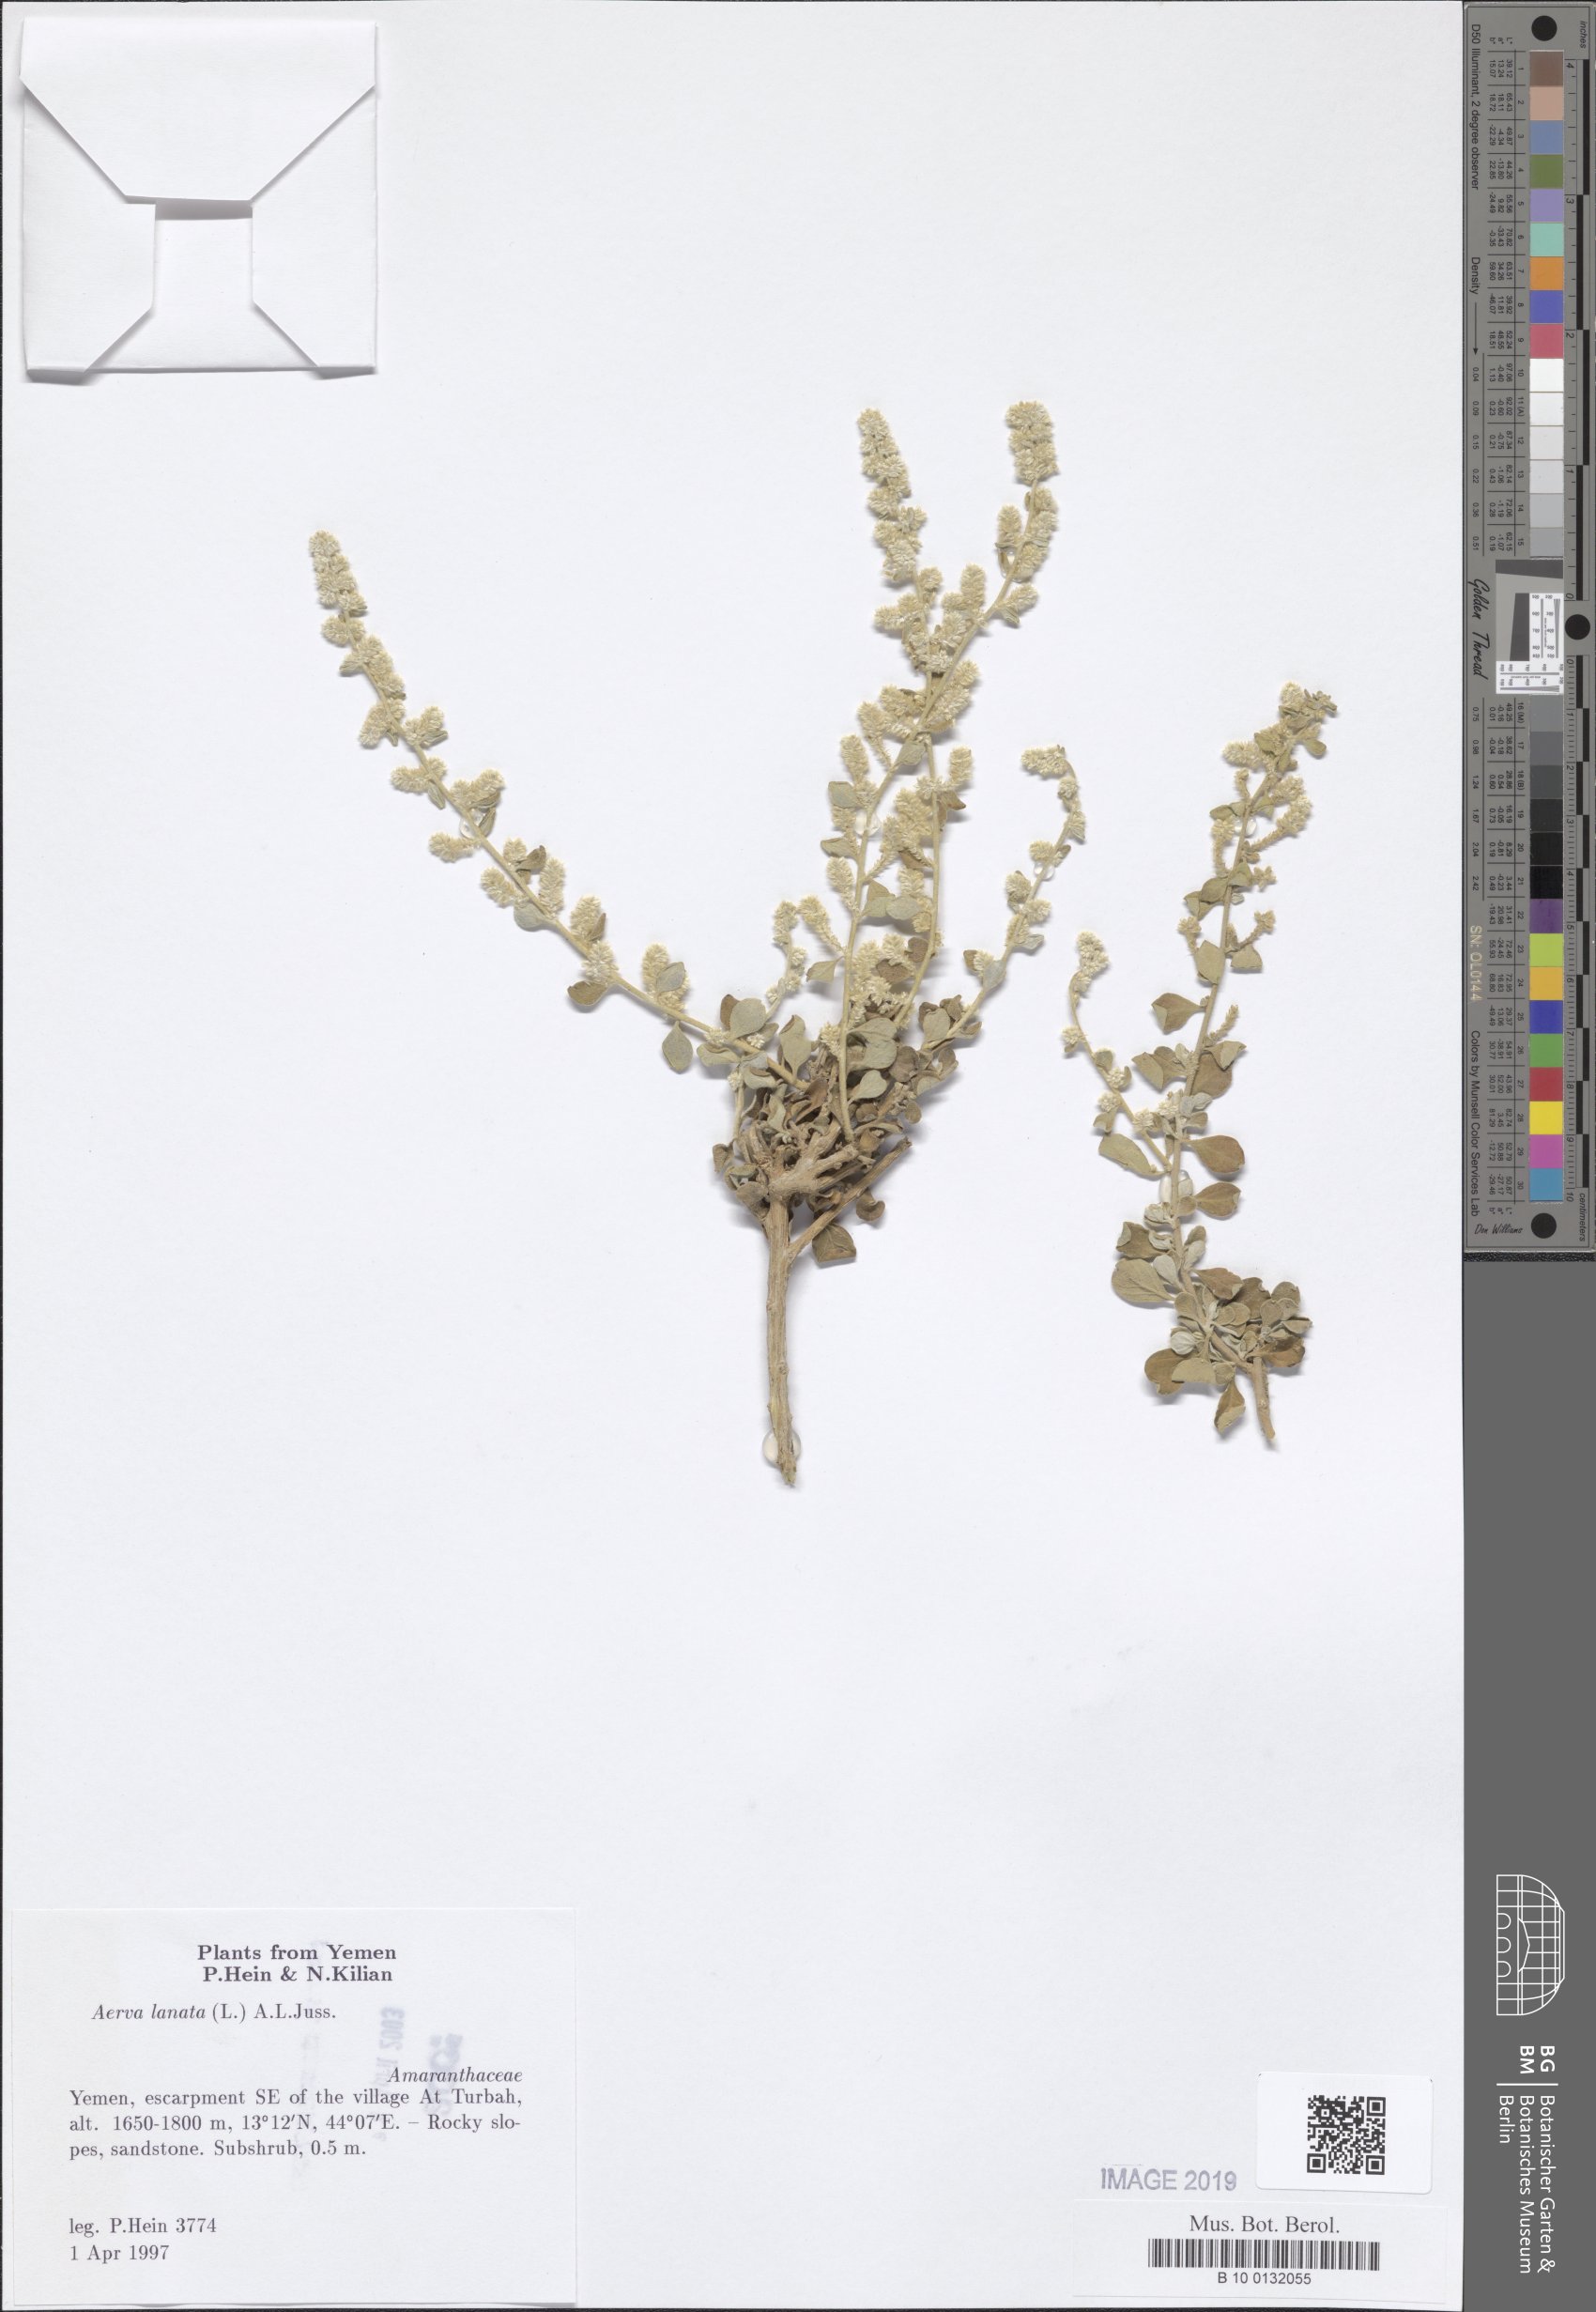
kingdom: Plantae
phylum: Tracheophyta
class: Magnoliopsida
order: Caryophyllales
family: Amaranthaceae
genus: Ouret
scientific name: Ouret lanata
